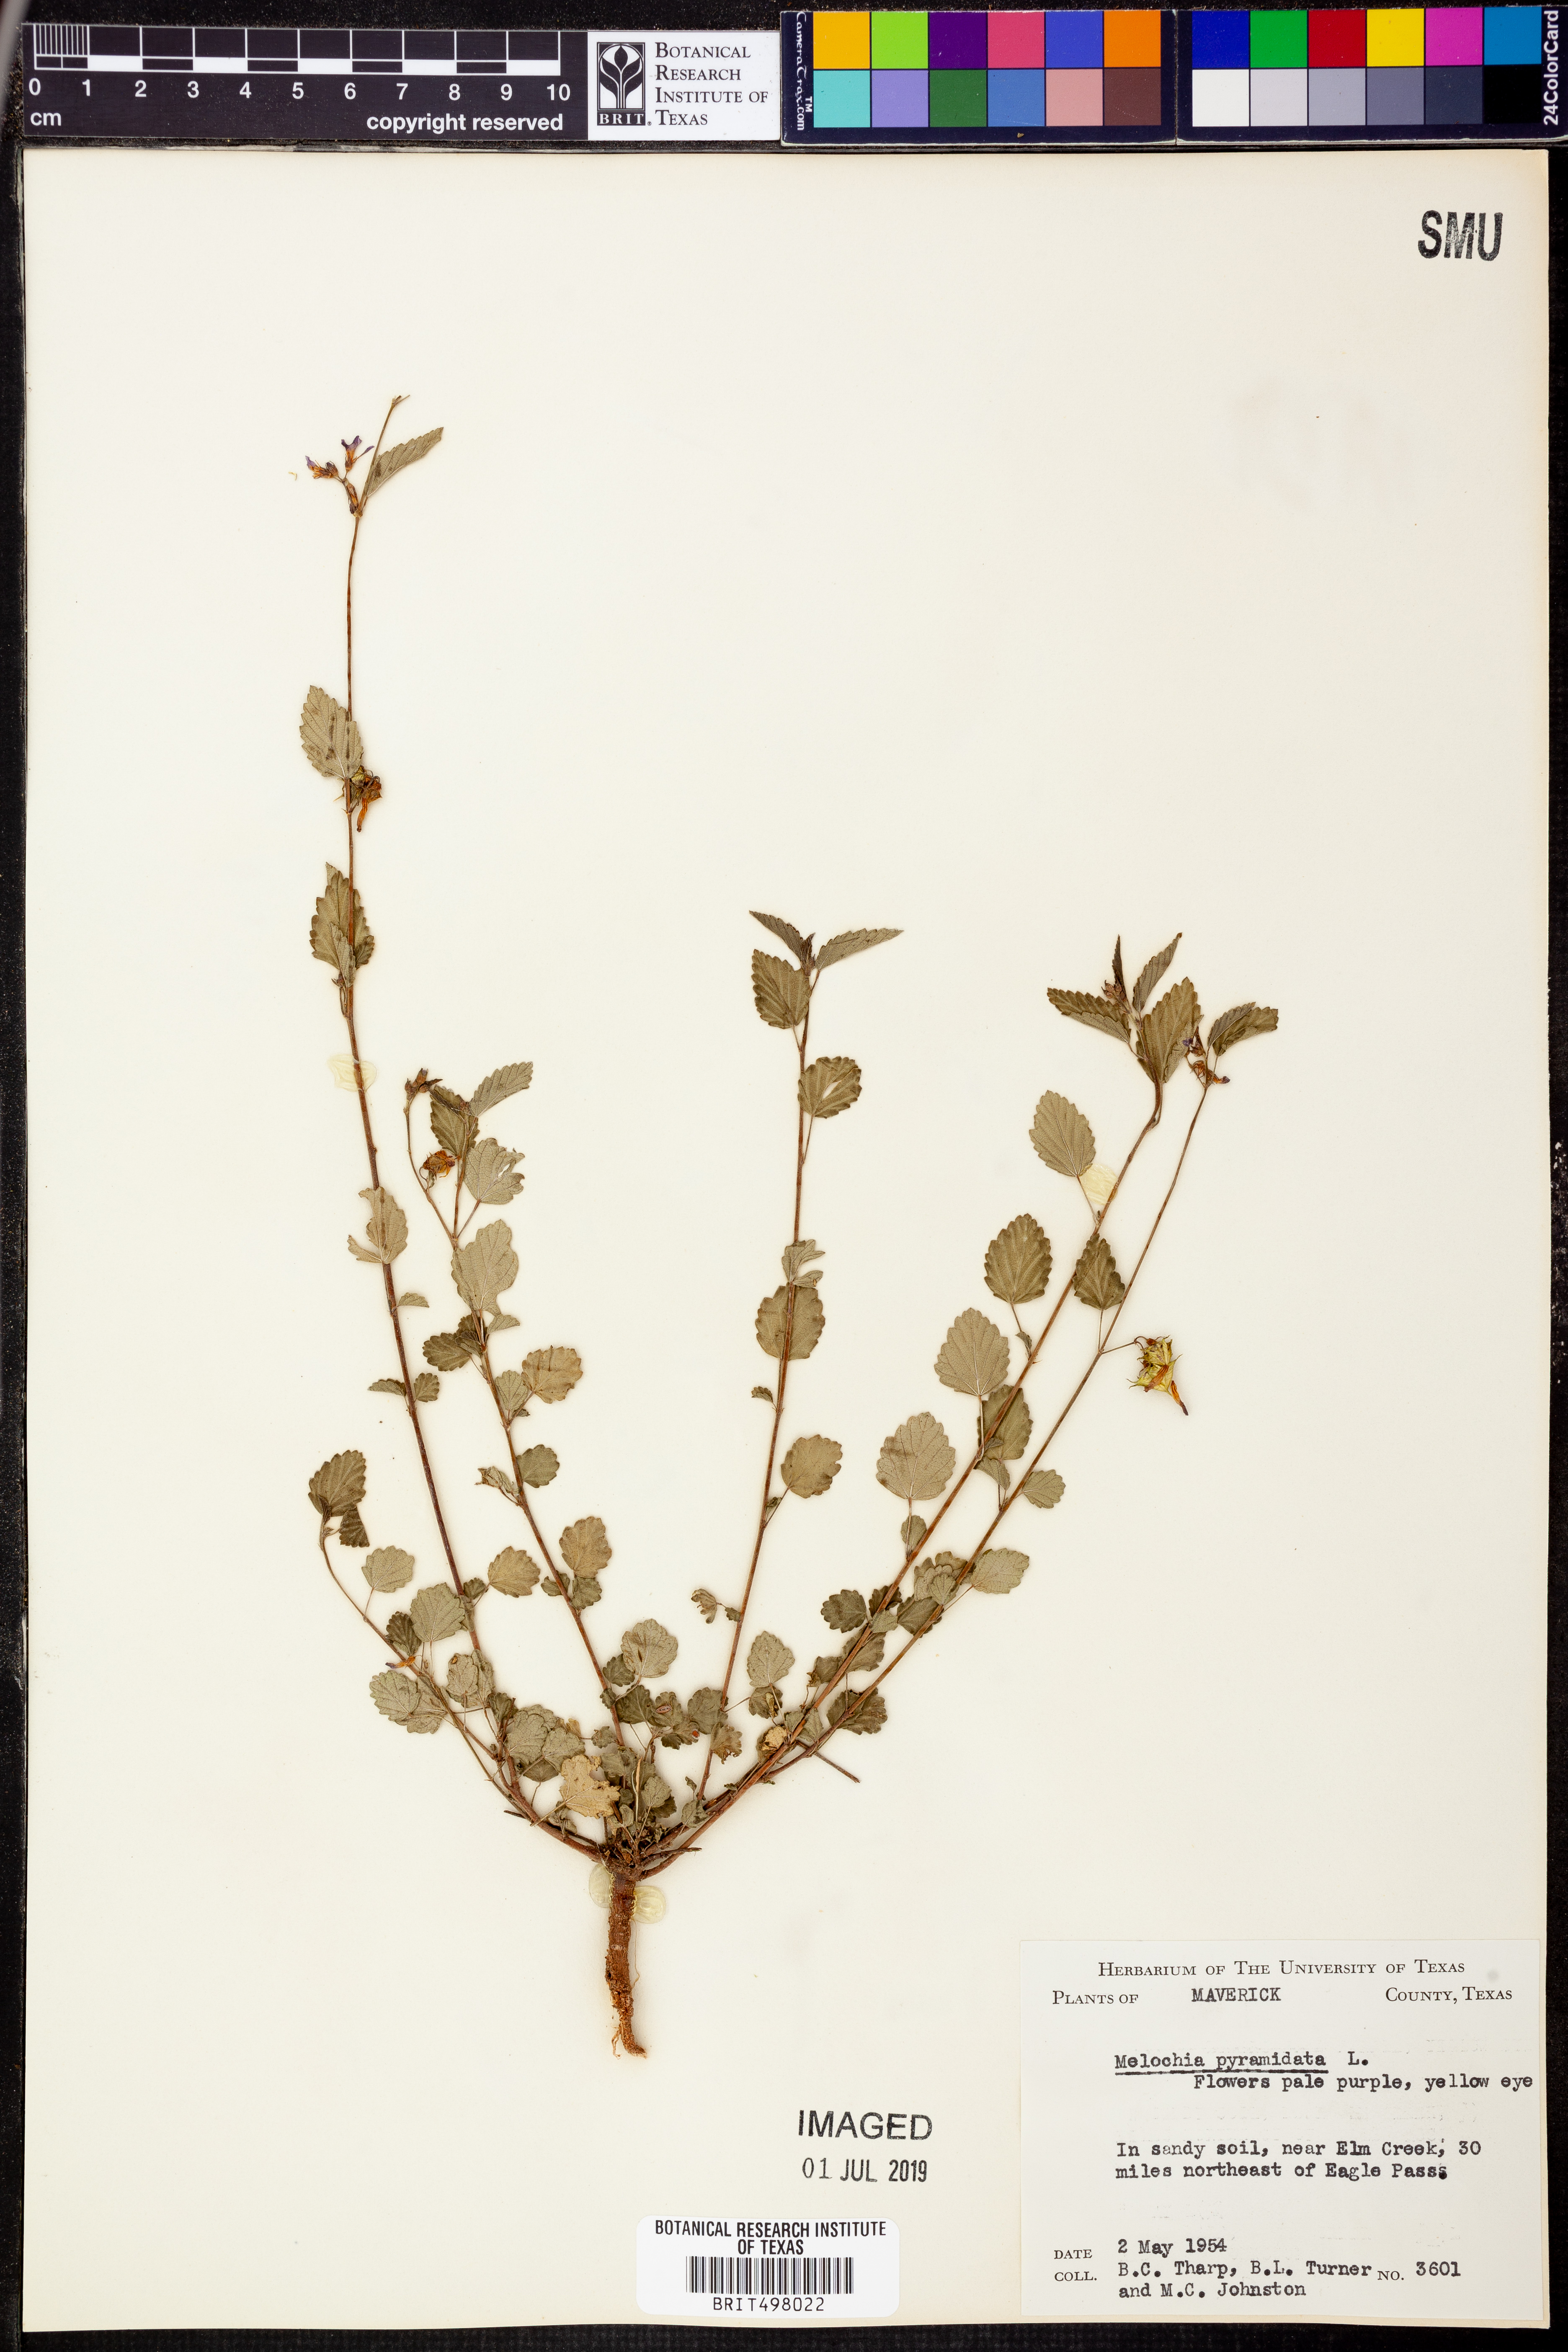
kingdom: Plantae
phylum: Tracheophyta
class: Magnoliopsida
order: Malvales
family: Malvaceae
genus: Melochia
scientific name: Melochia pyramidata
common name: Pyramidflower
